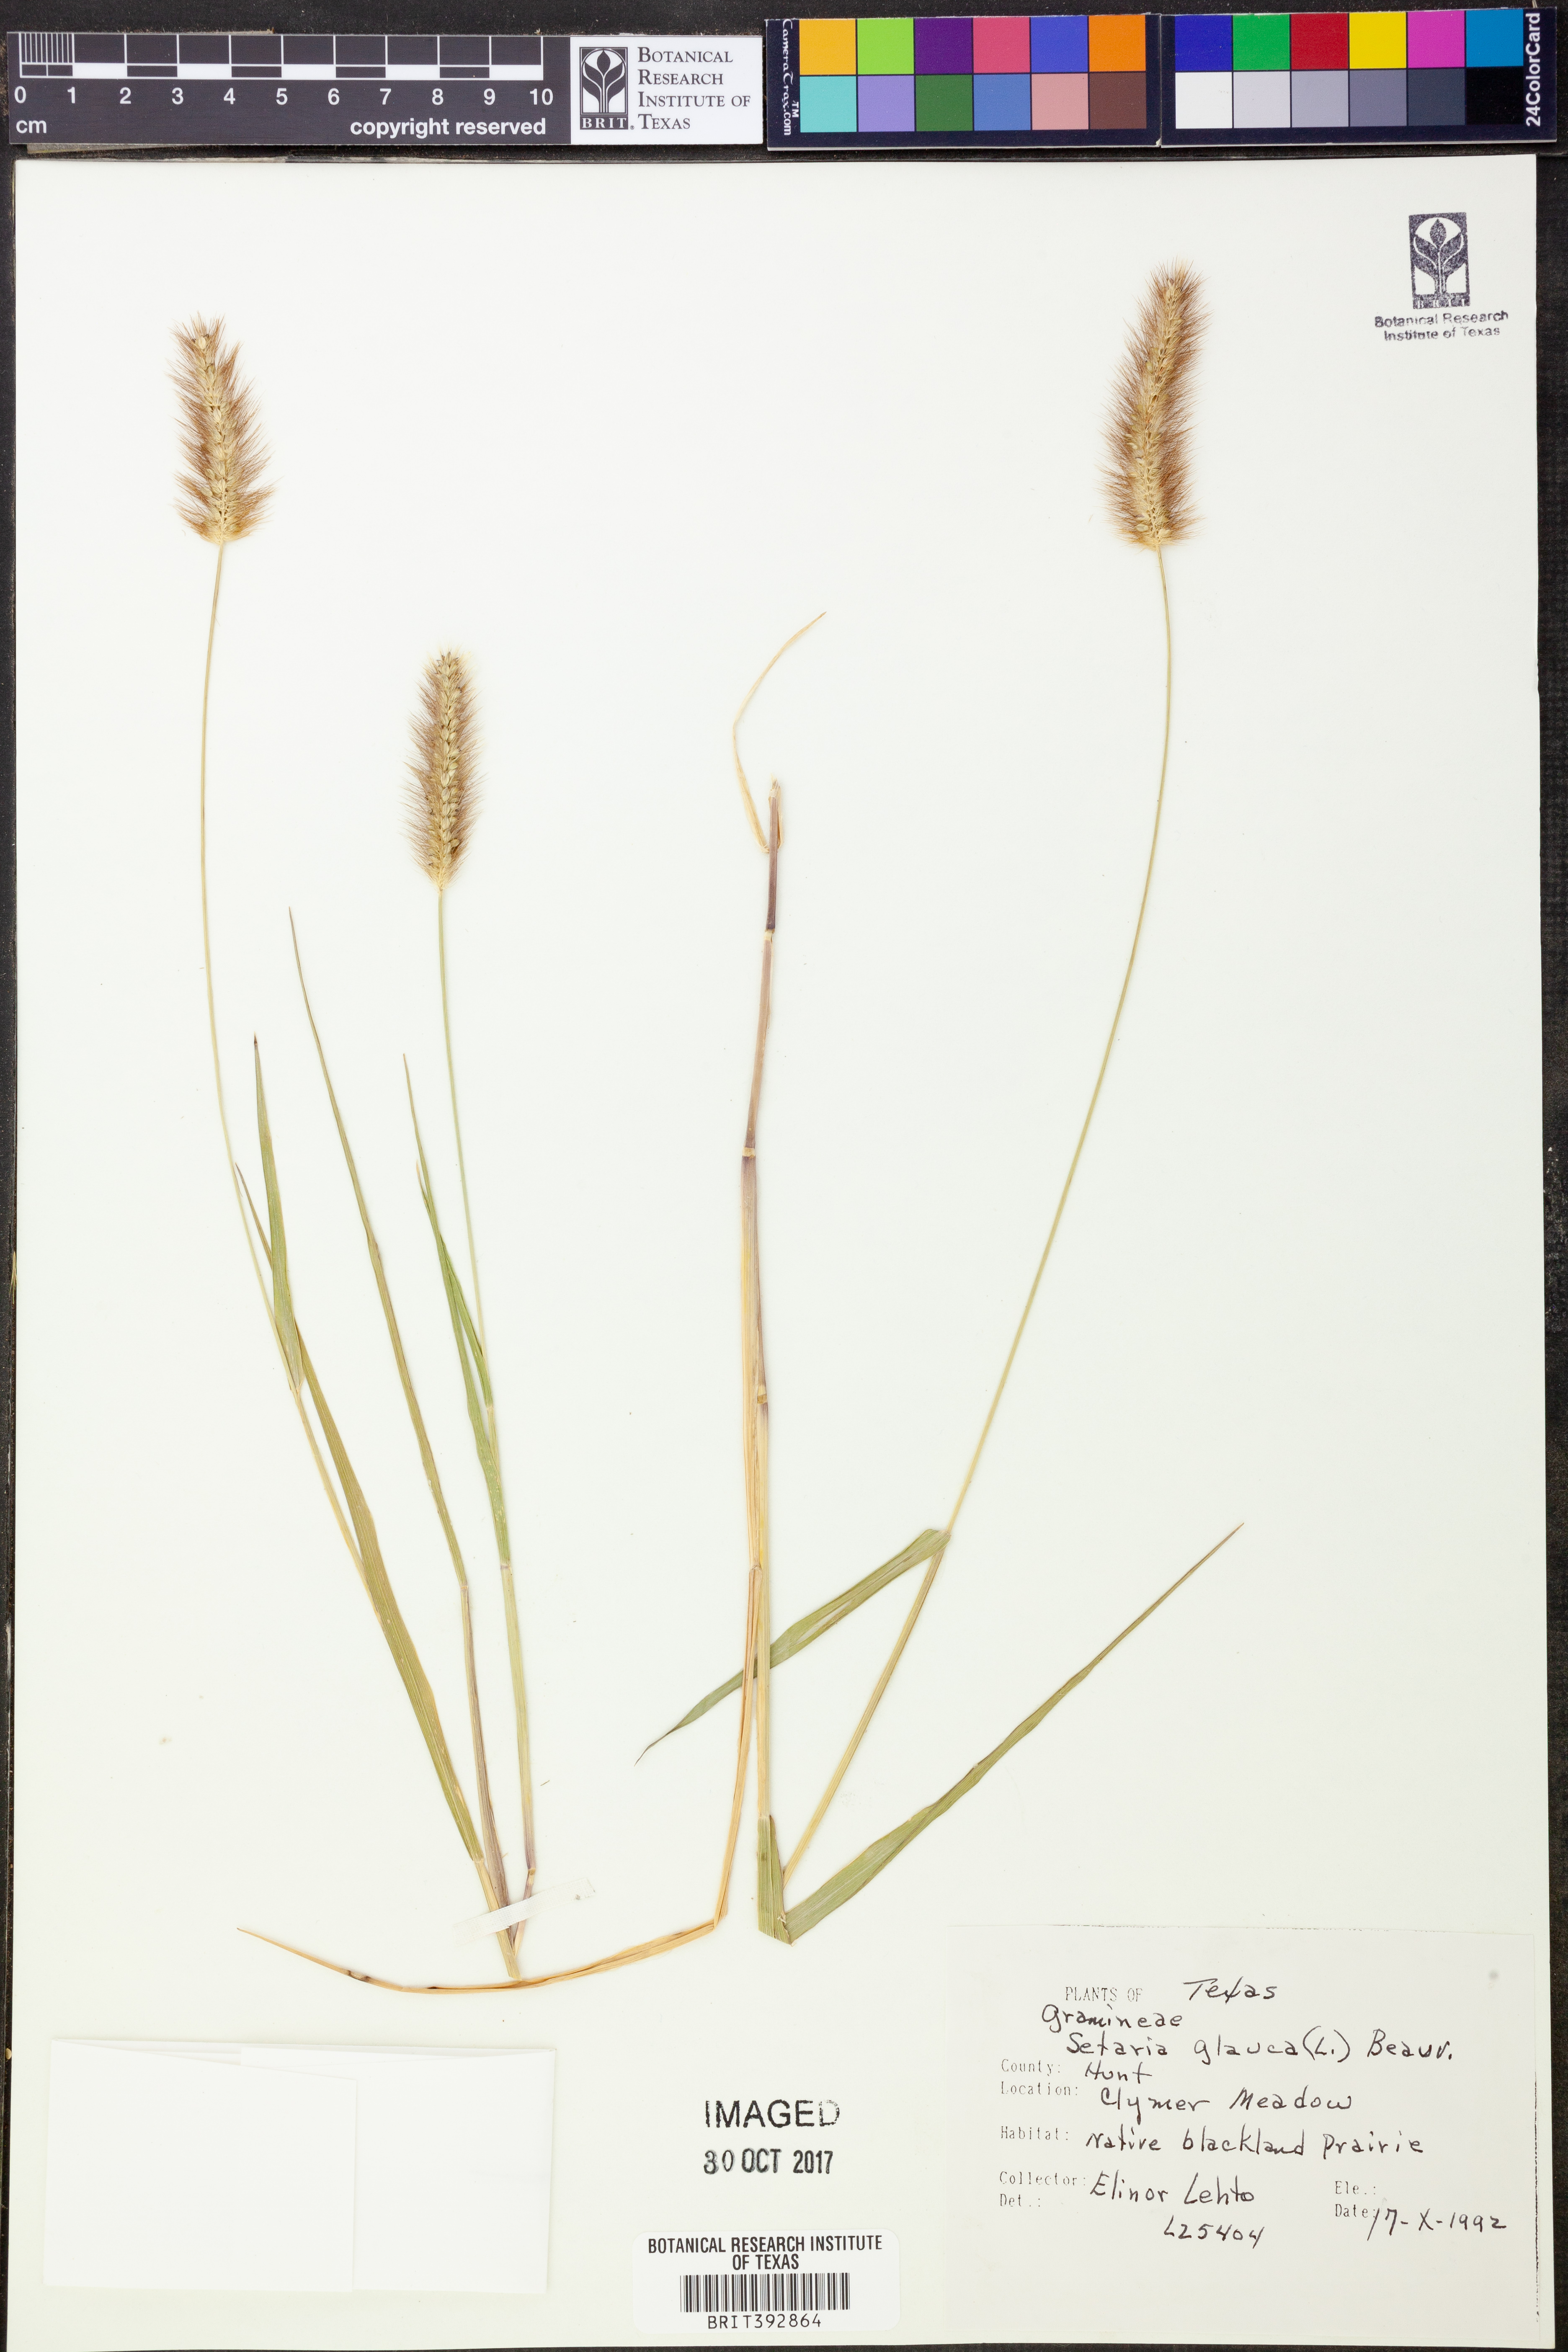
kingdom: Plantae
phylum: Tracheophyta
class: Liliopsida
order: Poales
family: Poaceae
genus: Cenchrus
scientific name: Cenchrus americanus
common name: Pearl millet
